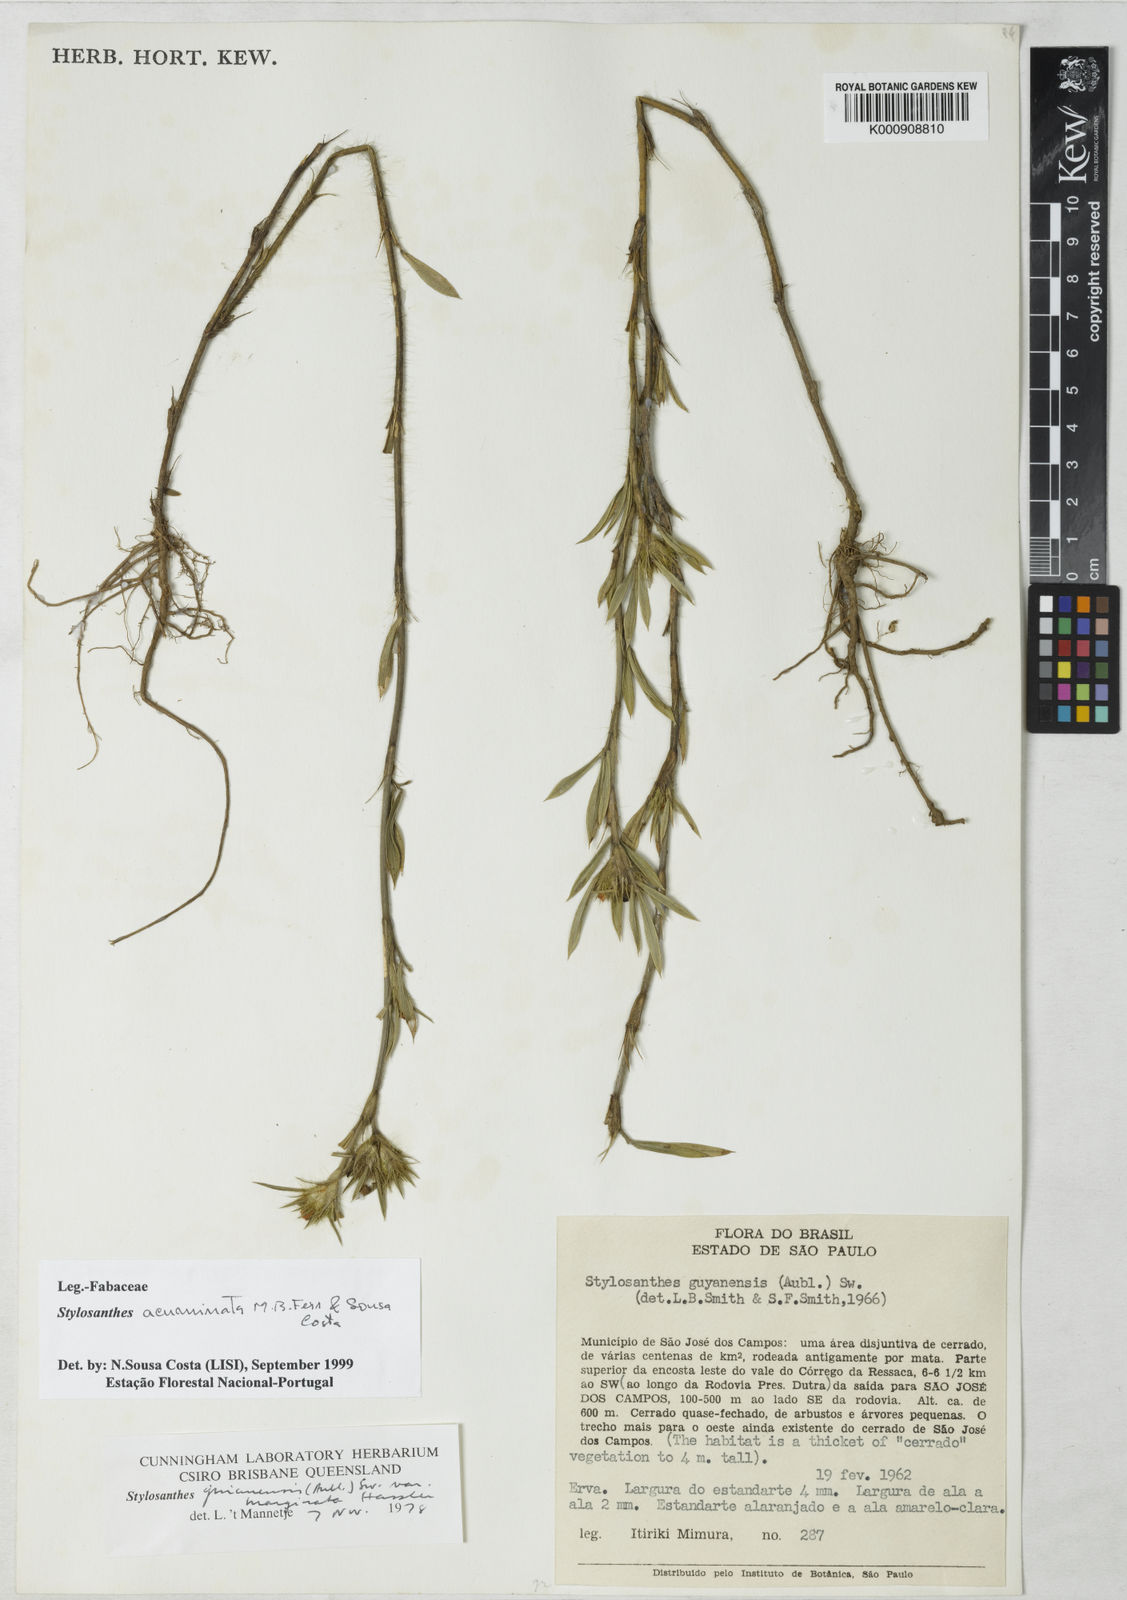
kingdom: Plantae
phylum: Tracheophyta
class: Magnoliopsida
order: Fabales
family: Fabaceae
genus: Stylosanthes
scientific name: Stylosanthes guianensis
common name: Pencil flower
